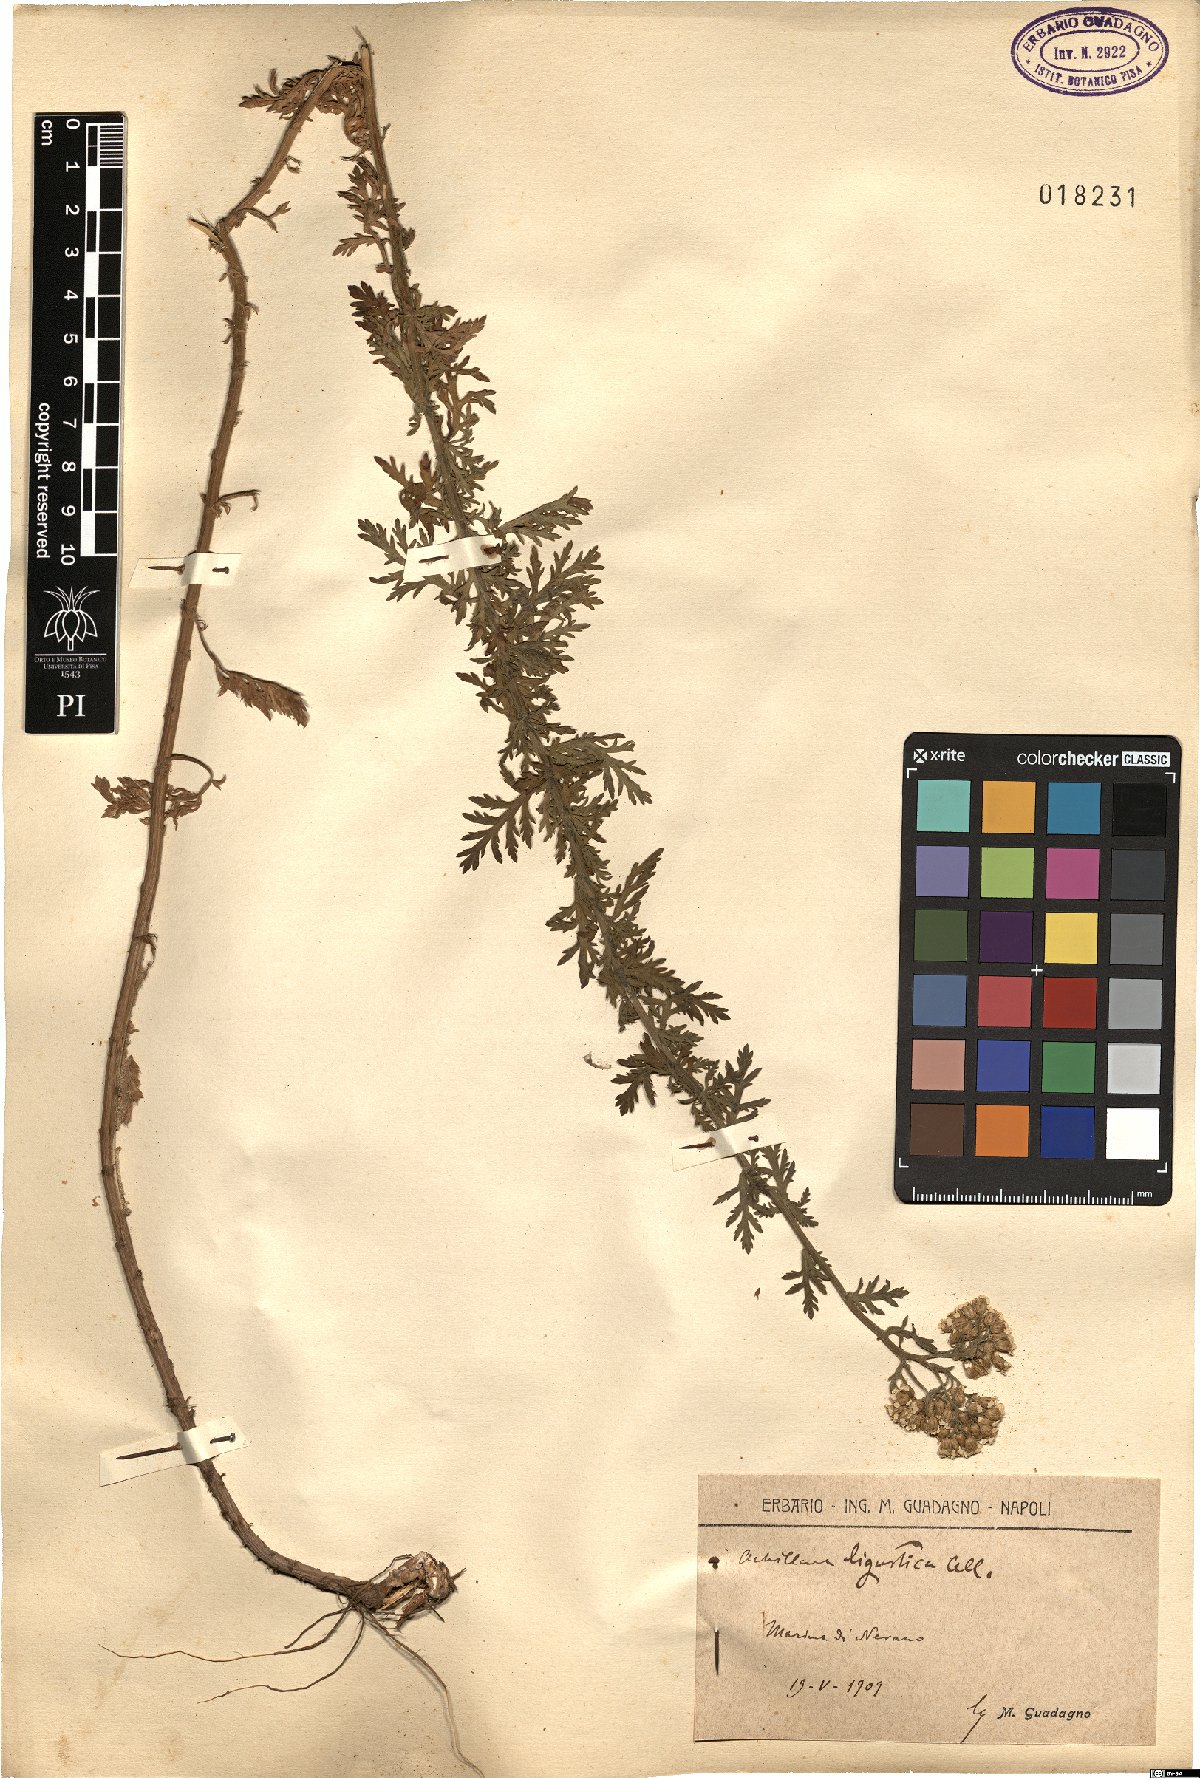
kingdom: Plantae
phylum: Tracheophyta
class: Magnoliopsida
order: Asterales
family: Asteraceae
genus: Achillea
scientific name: Achillea ligustica
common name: Southern yarrow
